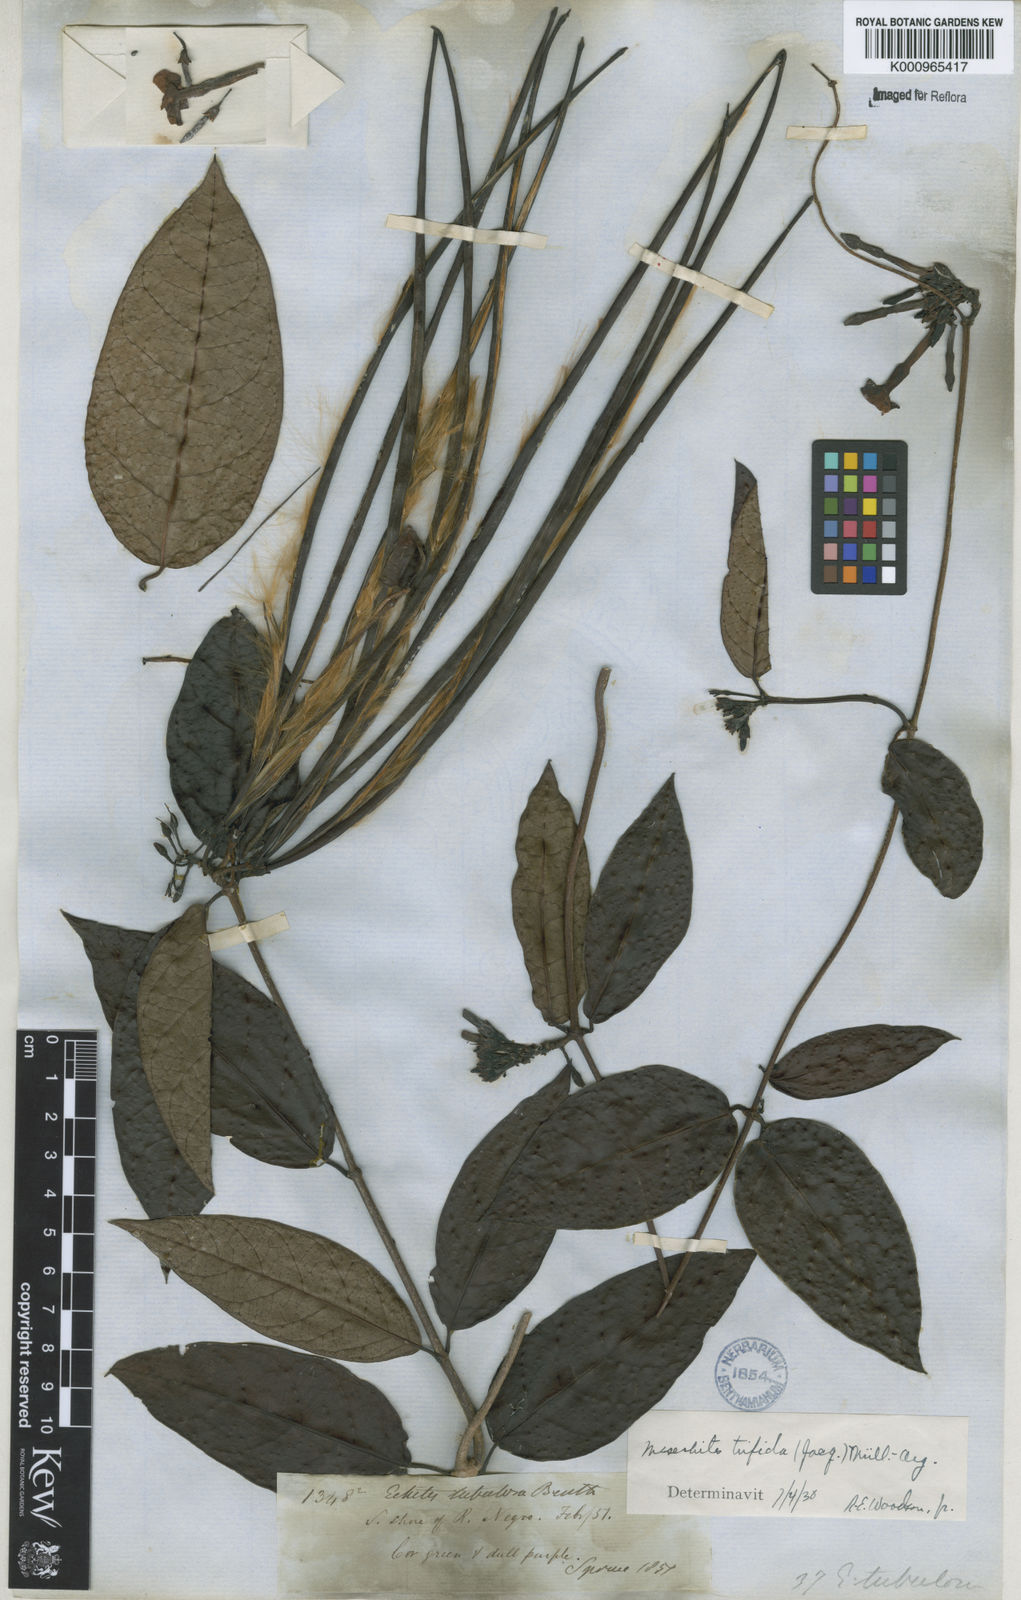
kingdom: Plantae
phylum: Tracheophyta
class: Magnoliopsida
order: Gentianales
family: Apocynaceae
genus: Mesechites
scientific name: Mesechites
